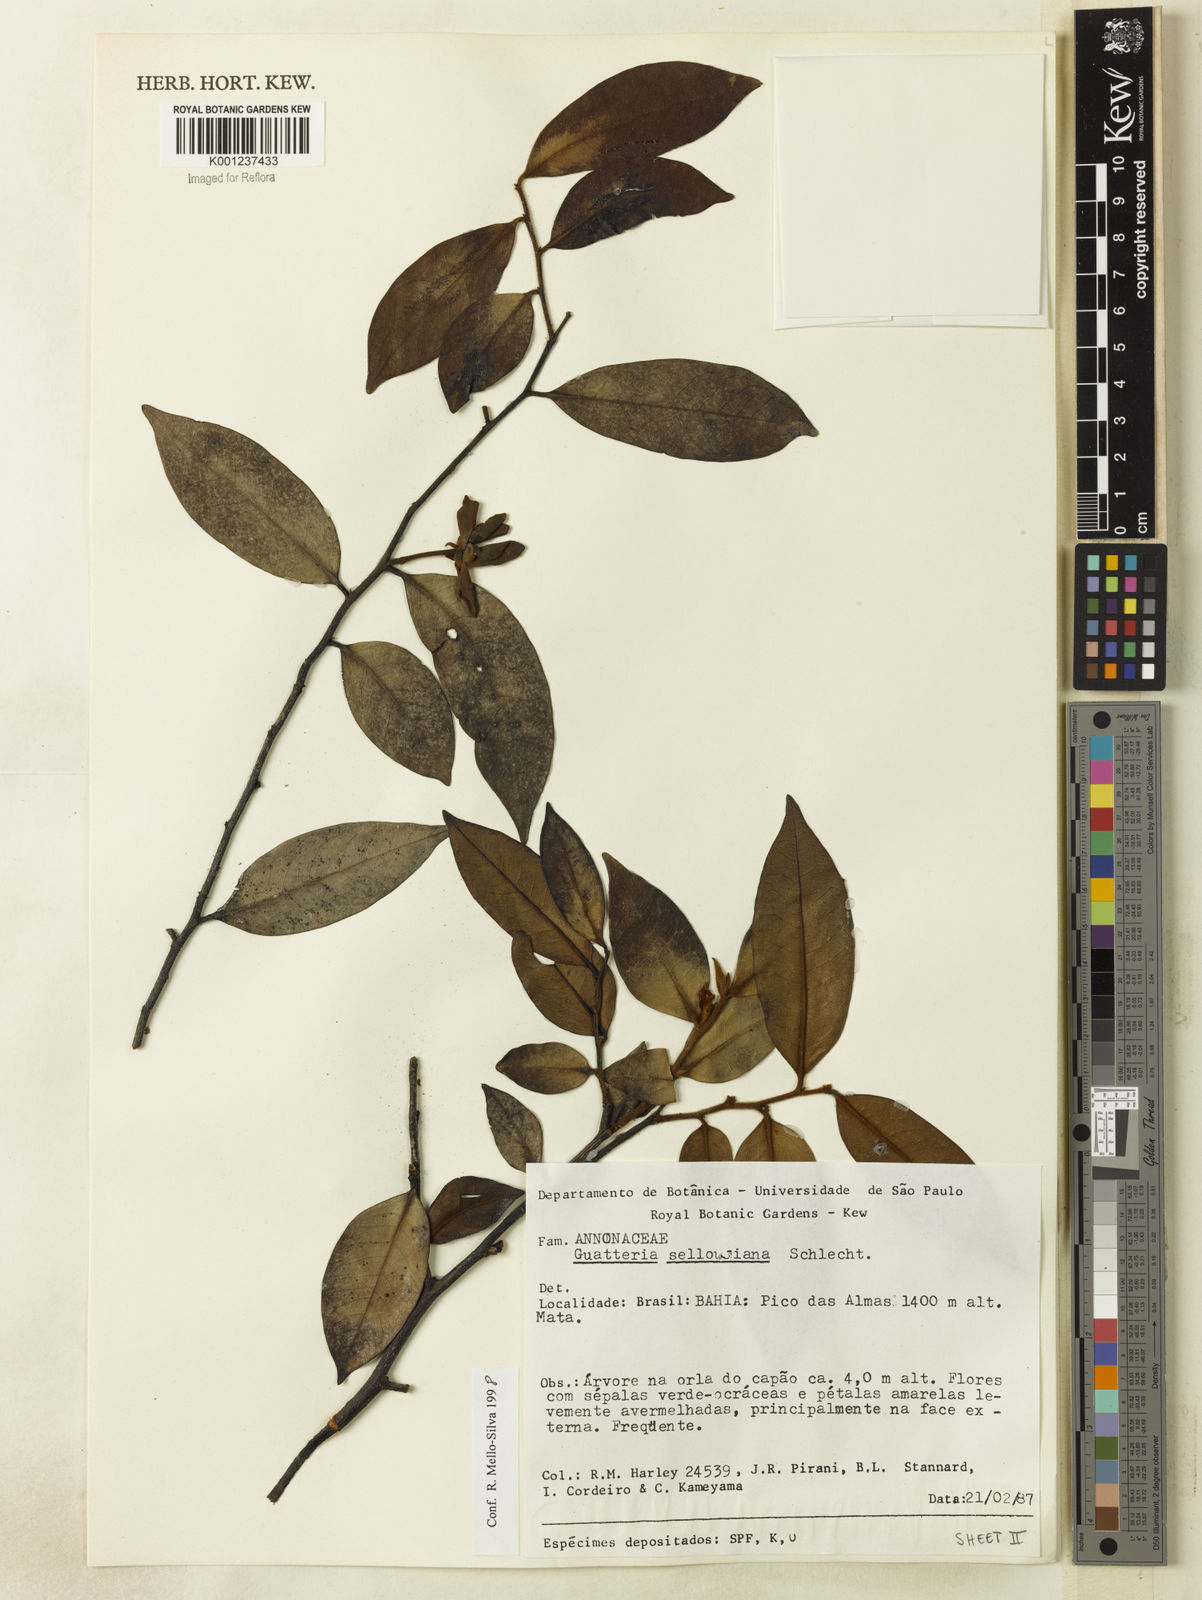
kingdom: Plantae
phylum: Tracheophyta
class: Magnoliopsida
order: Magnoliales
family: Annonaceae
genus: Guatteria
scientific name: Guatteria sellowiana
